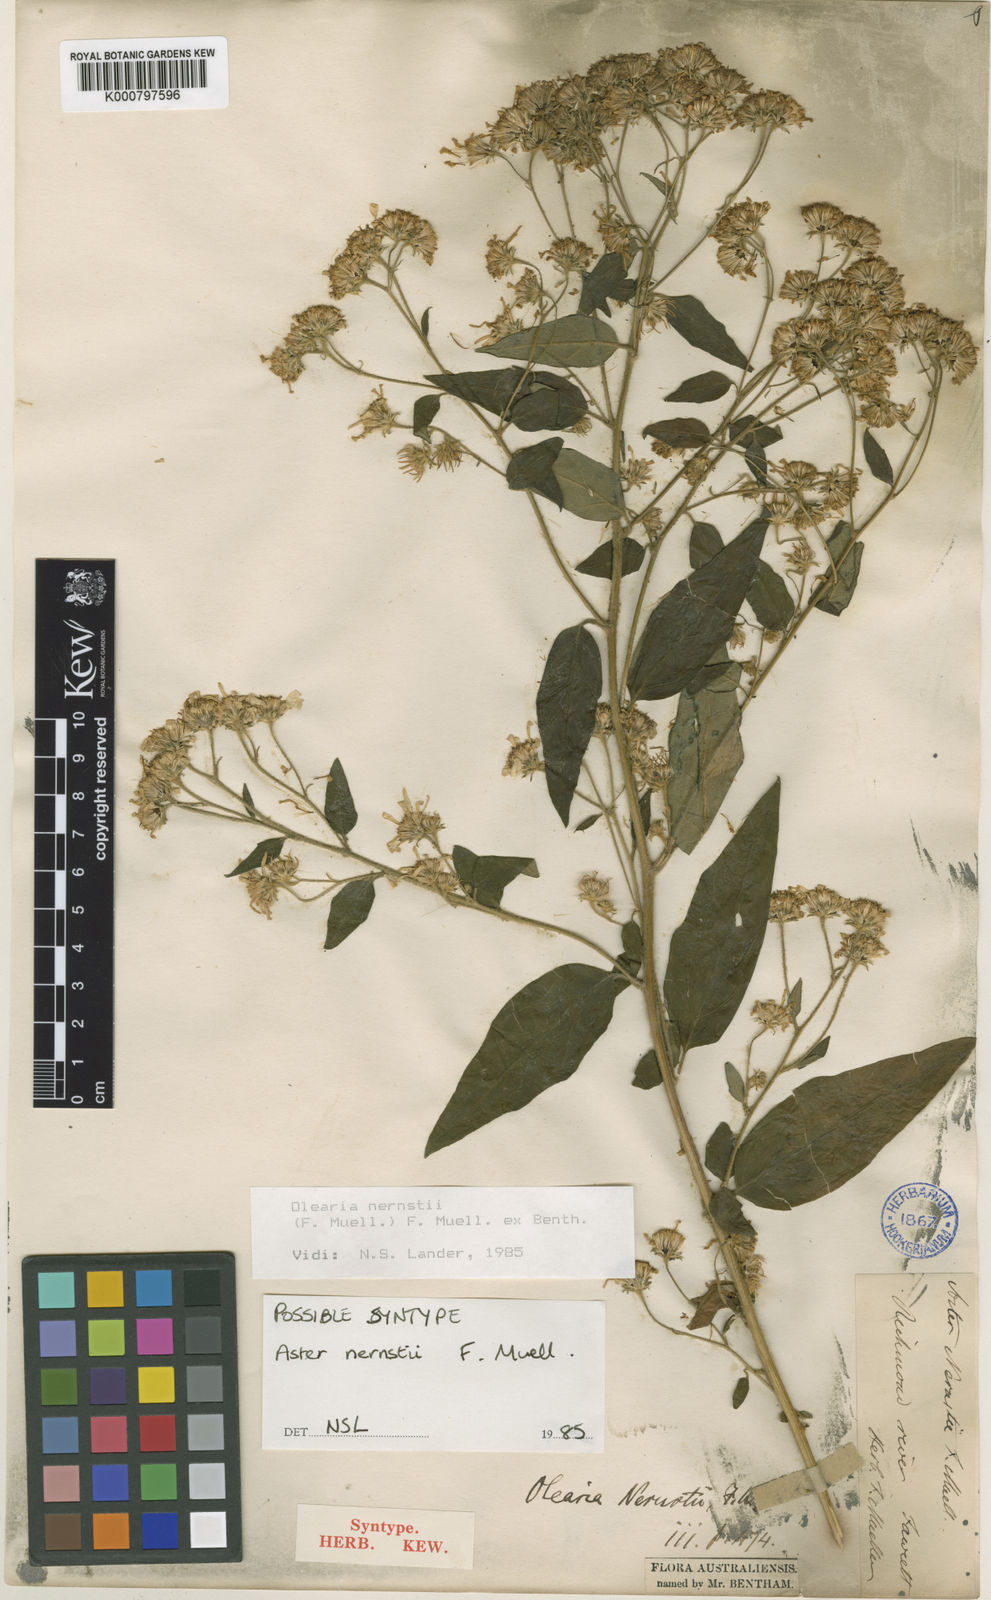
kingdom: Plantae
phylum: Tracheophyta
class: Magnoliopsida
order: Asterales
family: Asteraceae
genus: Olearia
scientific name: Olearia nernstii
